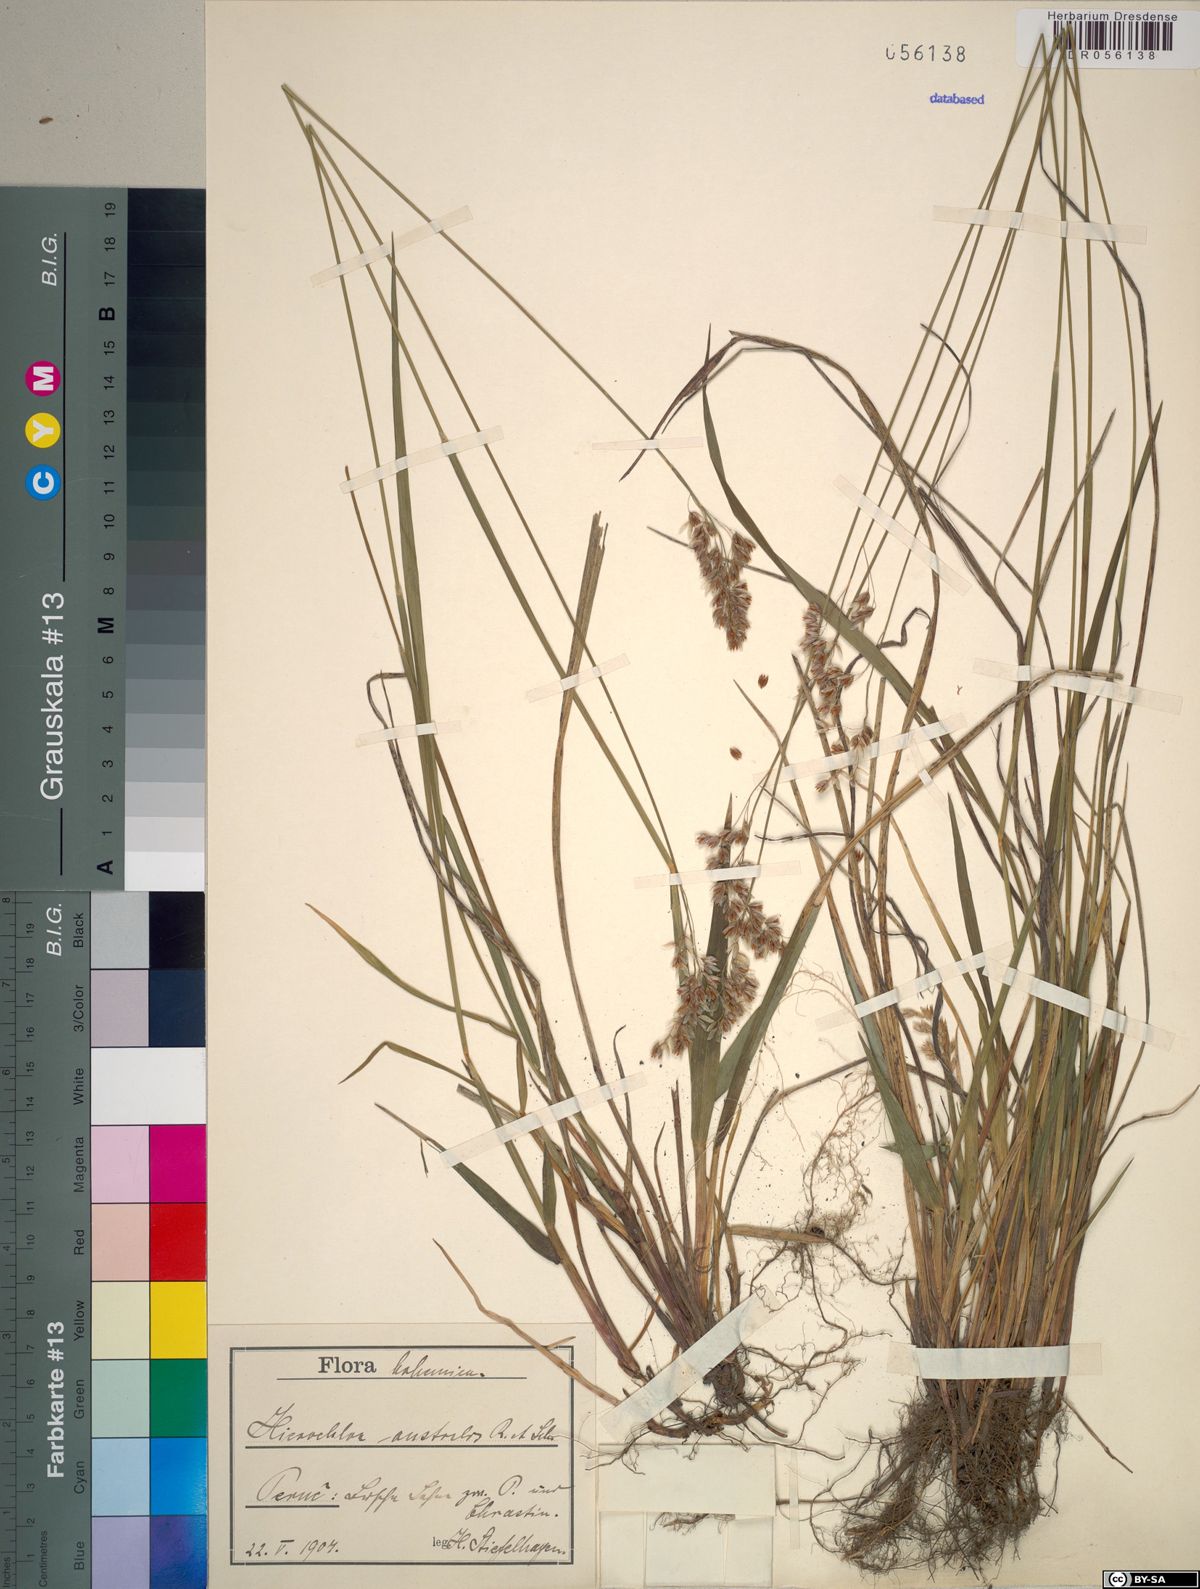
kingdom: Plantae
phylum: Tracheophyta
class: Liliopsida
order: Poales
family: Poaceae
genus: Anthoxanthum
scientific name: Anthoxanthum australe
